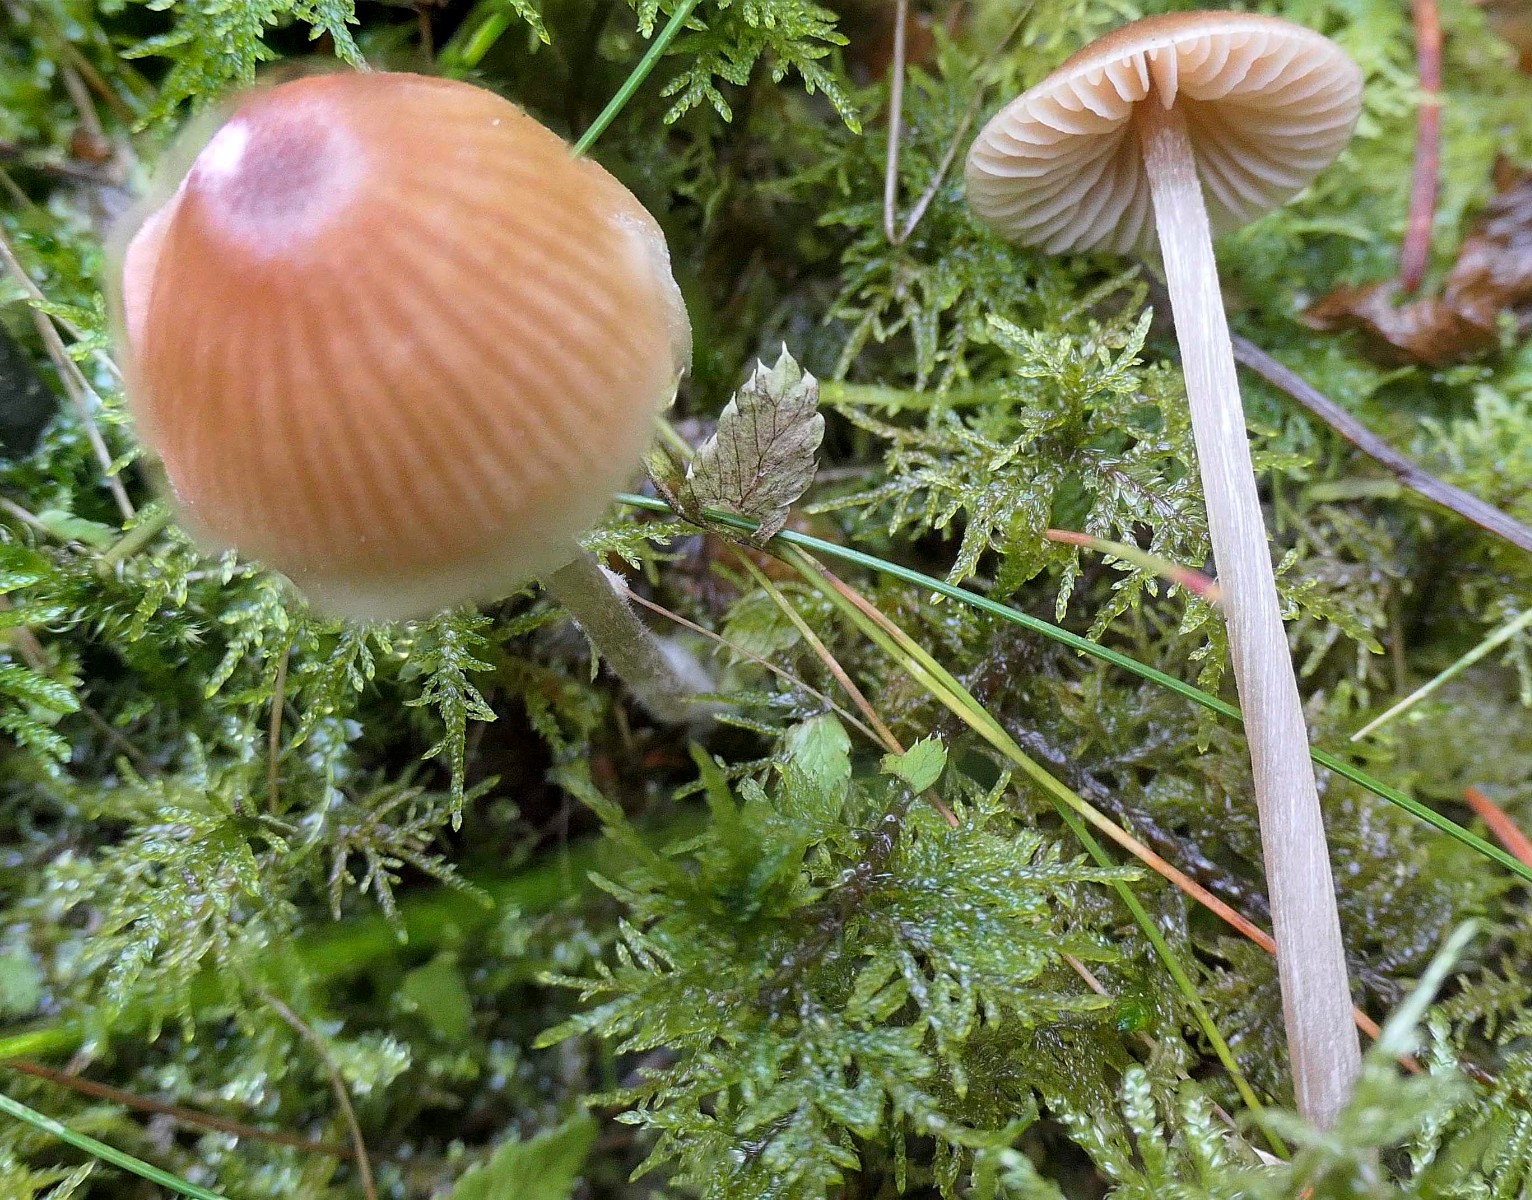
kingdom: Fungi
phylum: Basidiomycota
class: Agaricomycetes
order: Agaricales
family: Entolomataceae
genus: Entoloma
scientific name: Entoloma cetratum
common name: voks-rødblad
